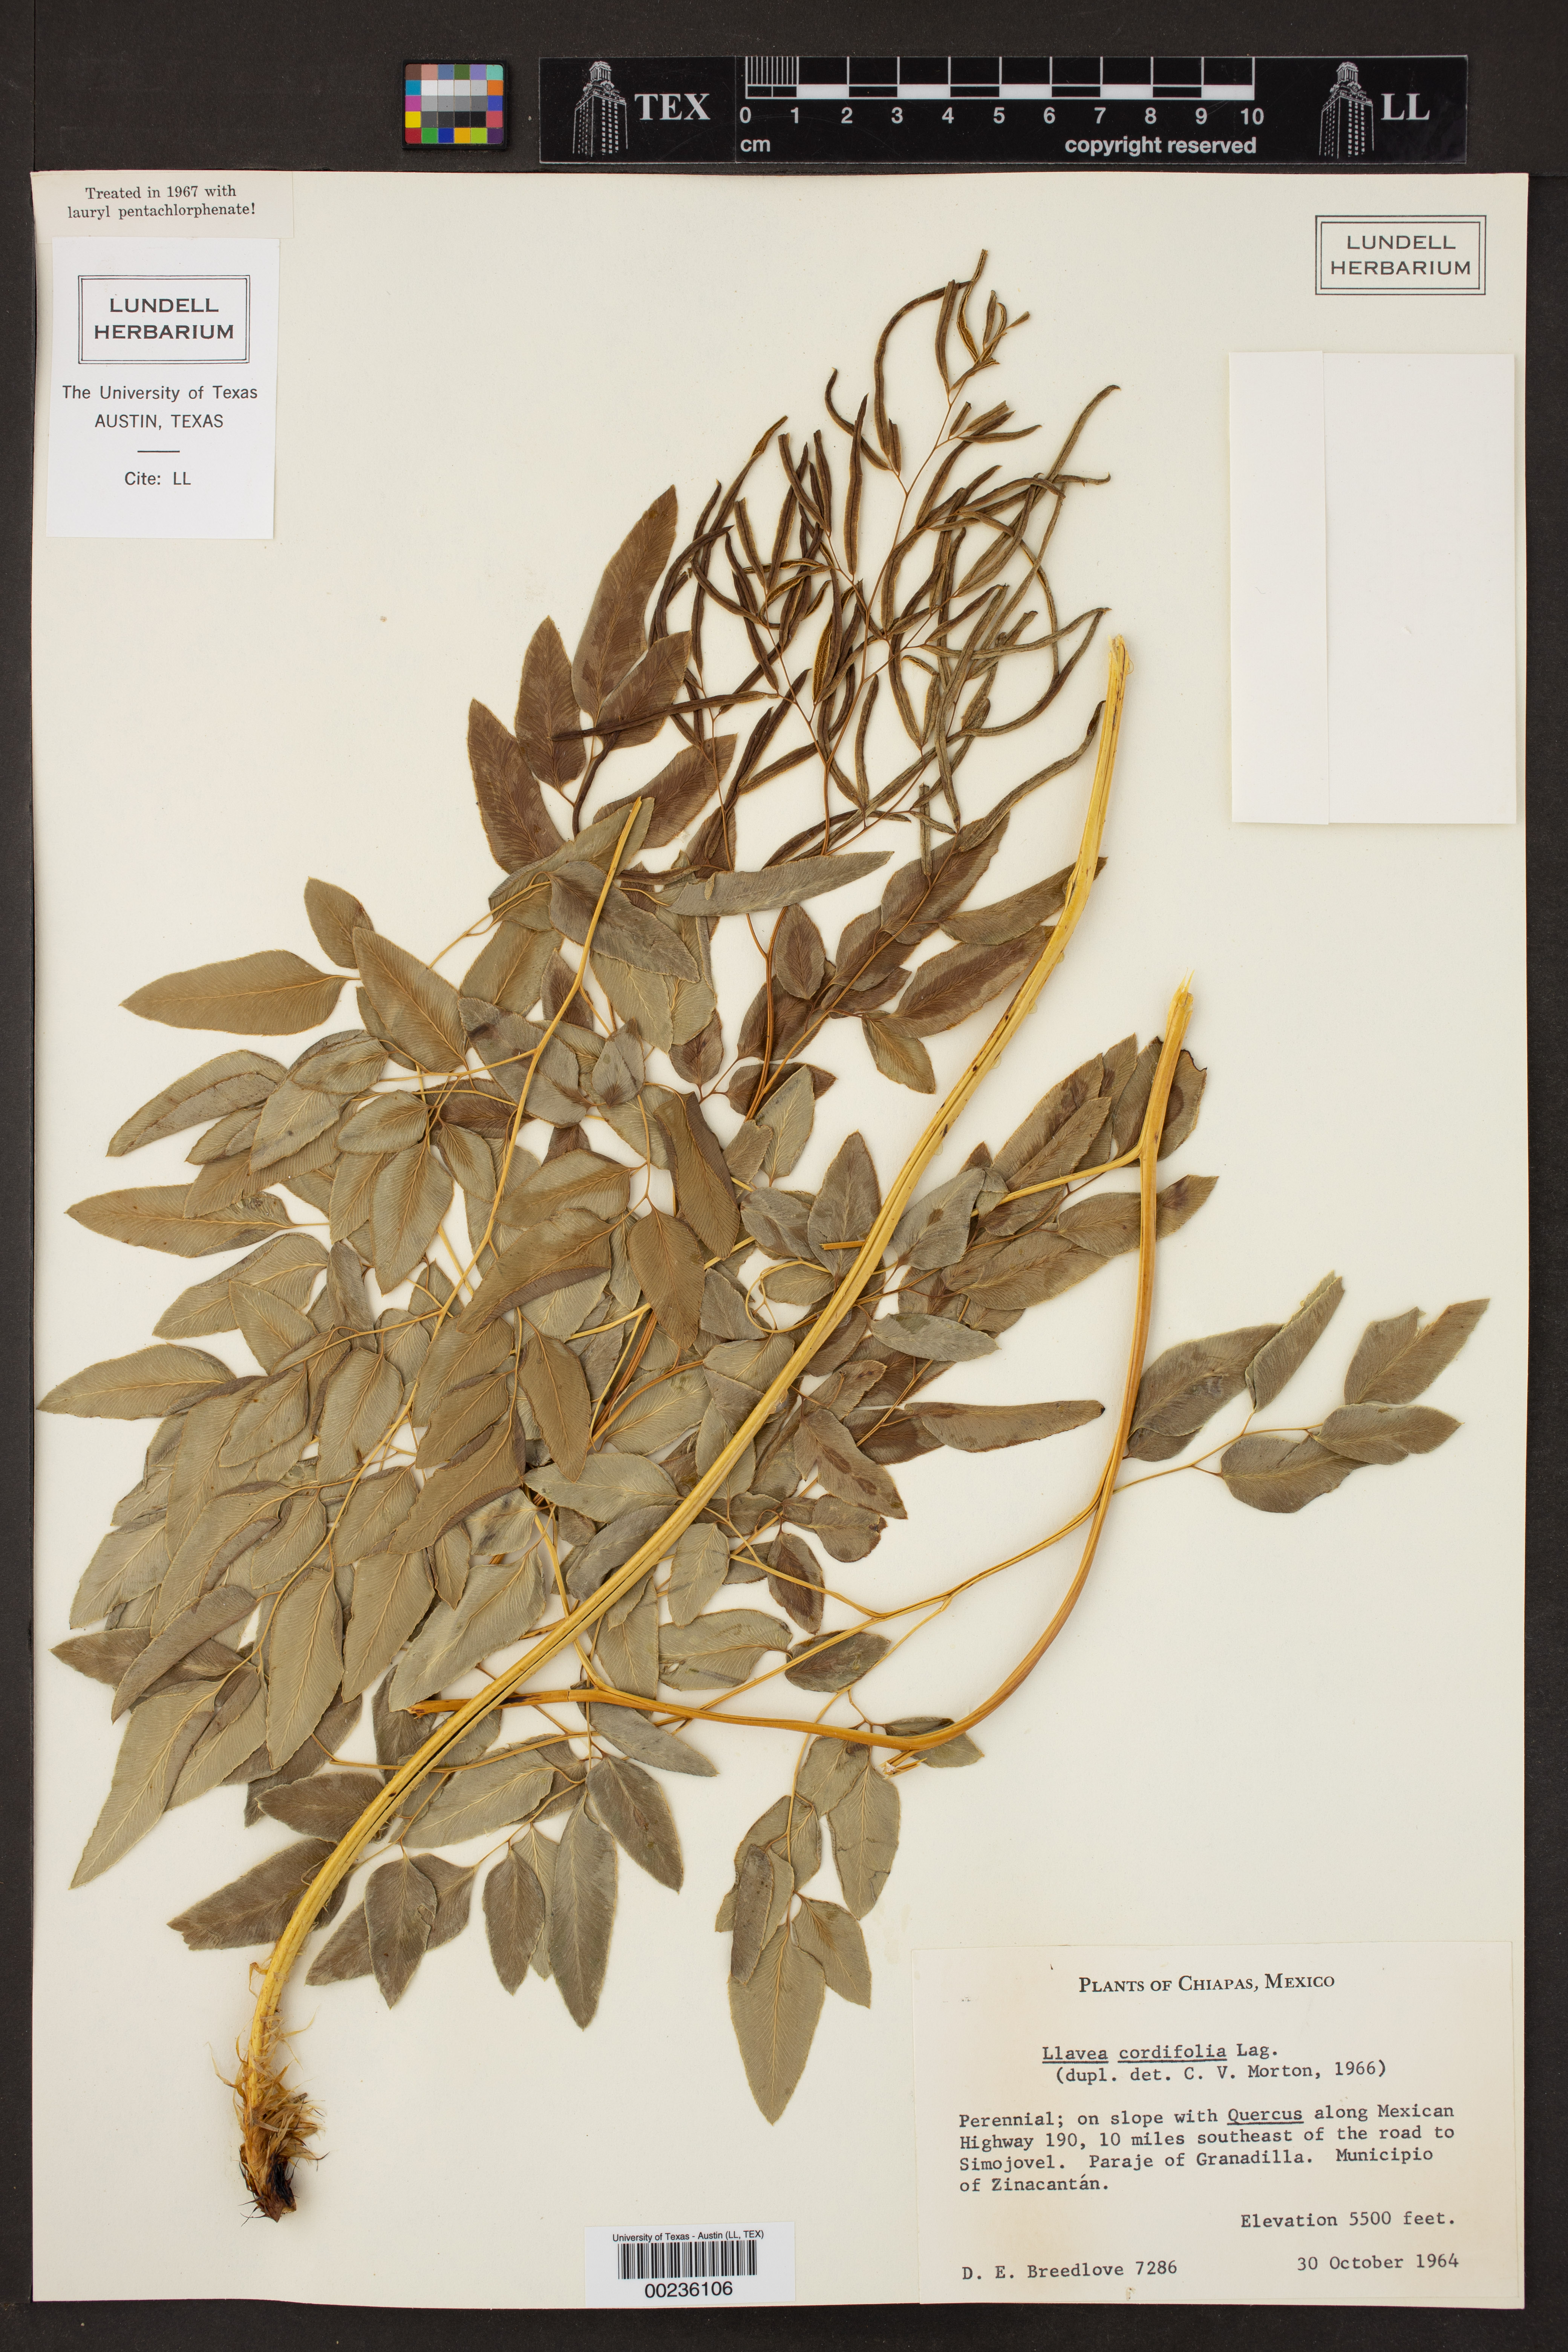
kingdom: Plantae
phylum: Tracheophyta
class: Polypodiopsida
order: Polypodiales
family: Pteridaceae
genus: Llavea
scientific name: Llavea
